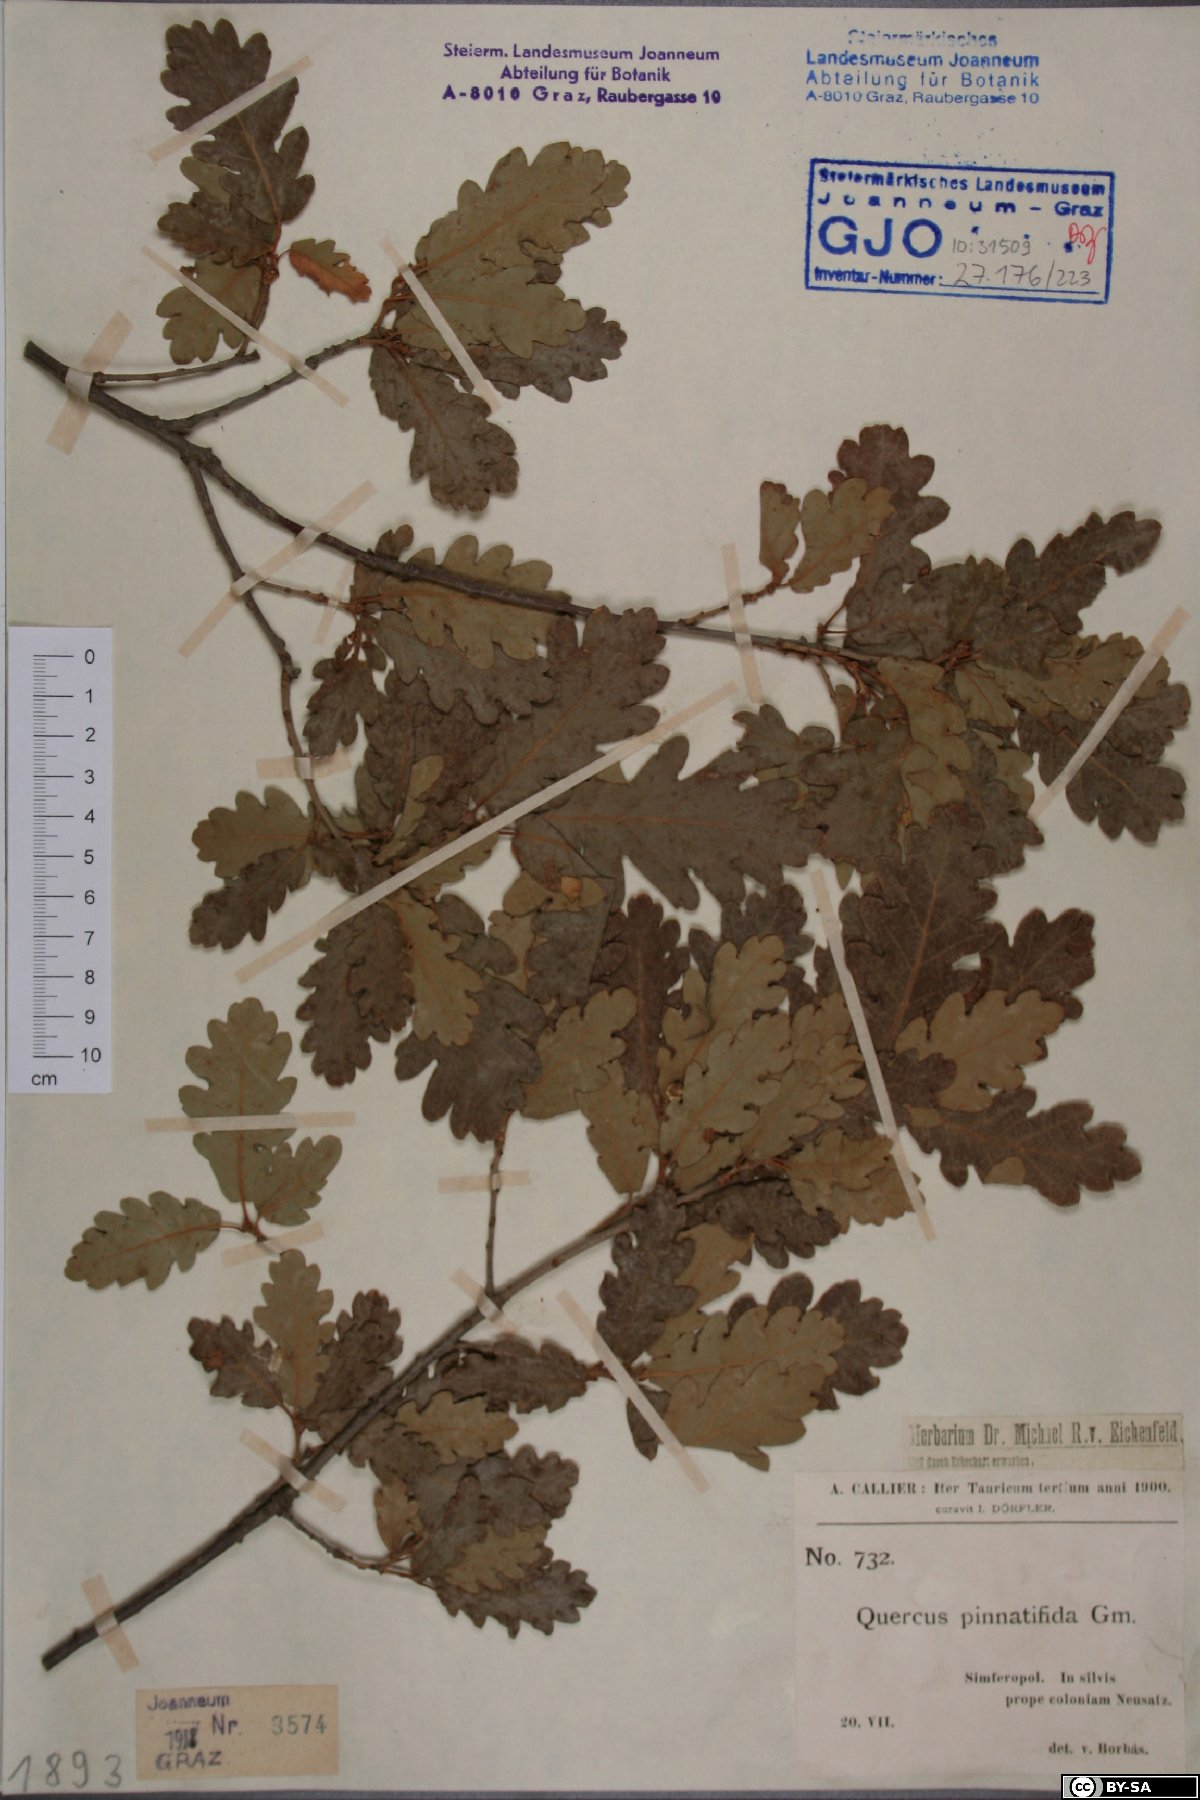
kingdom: Plantae
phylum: Tracheophyta
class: Magnoliopsida
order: Fagales
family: Fagaceae
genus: Quercus
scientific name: Quercus pubescens
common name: Downy oak
